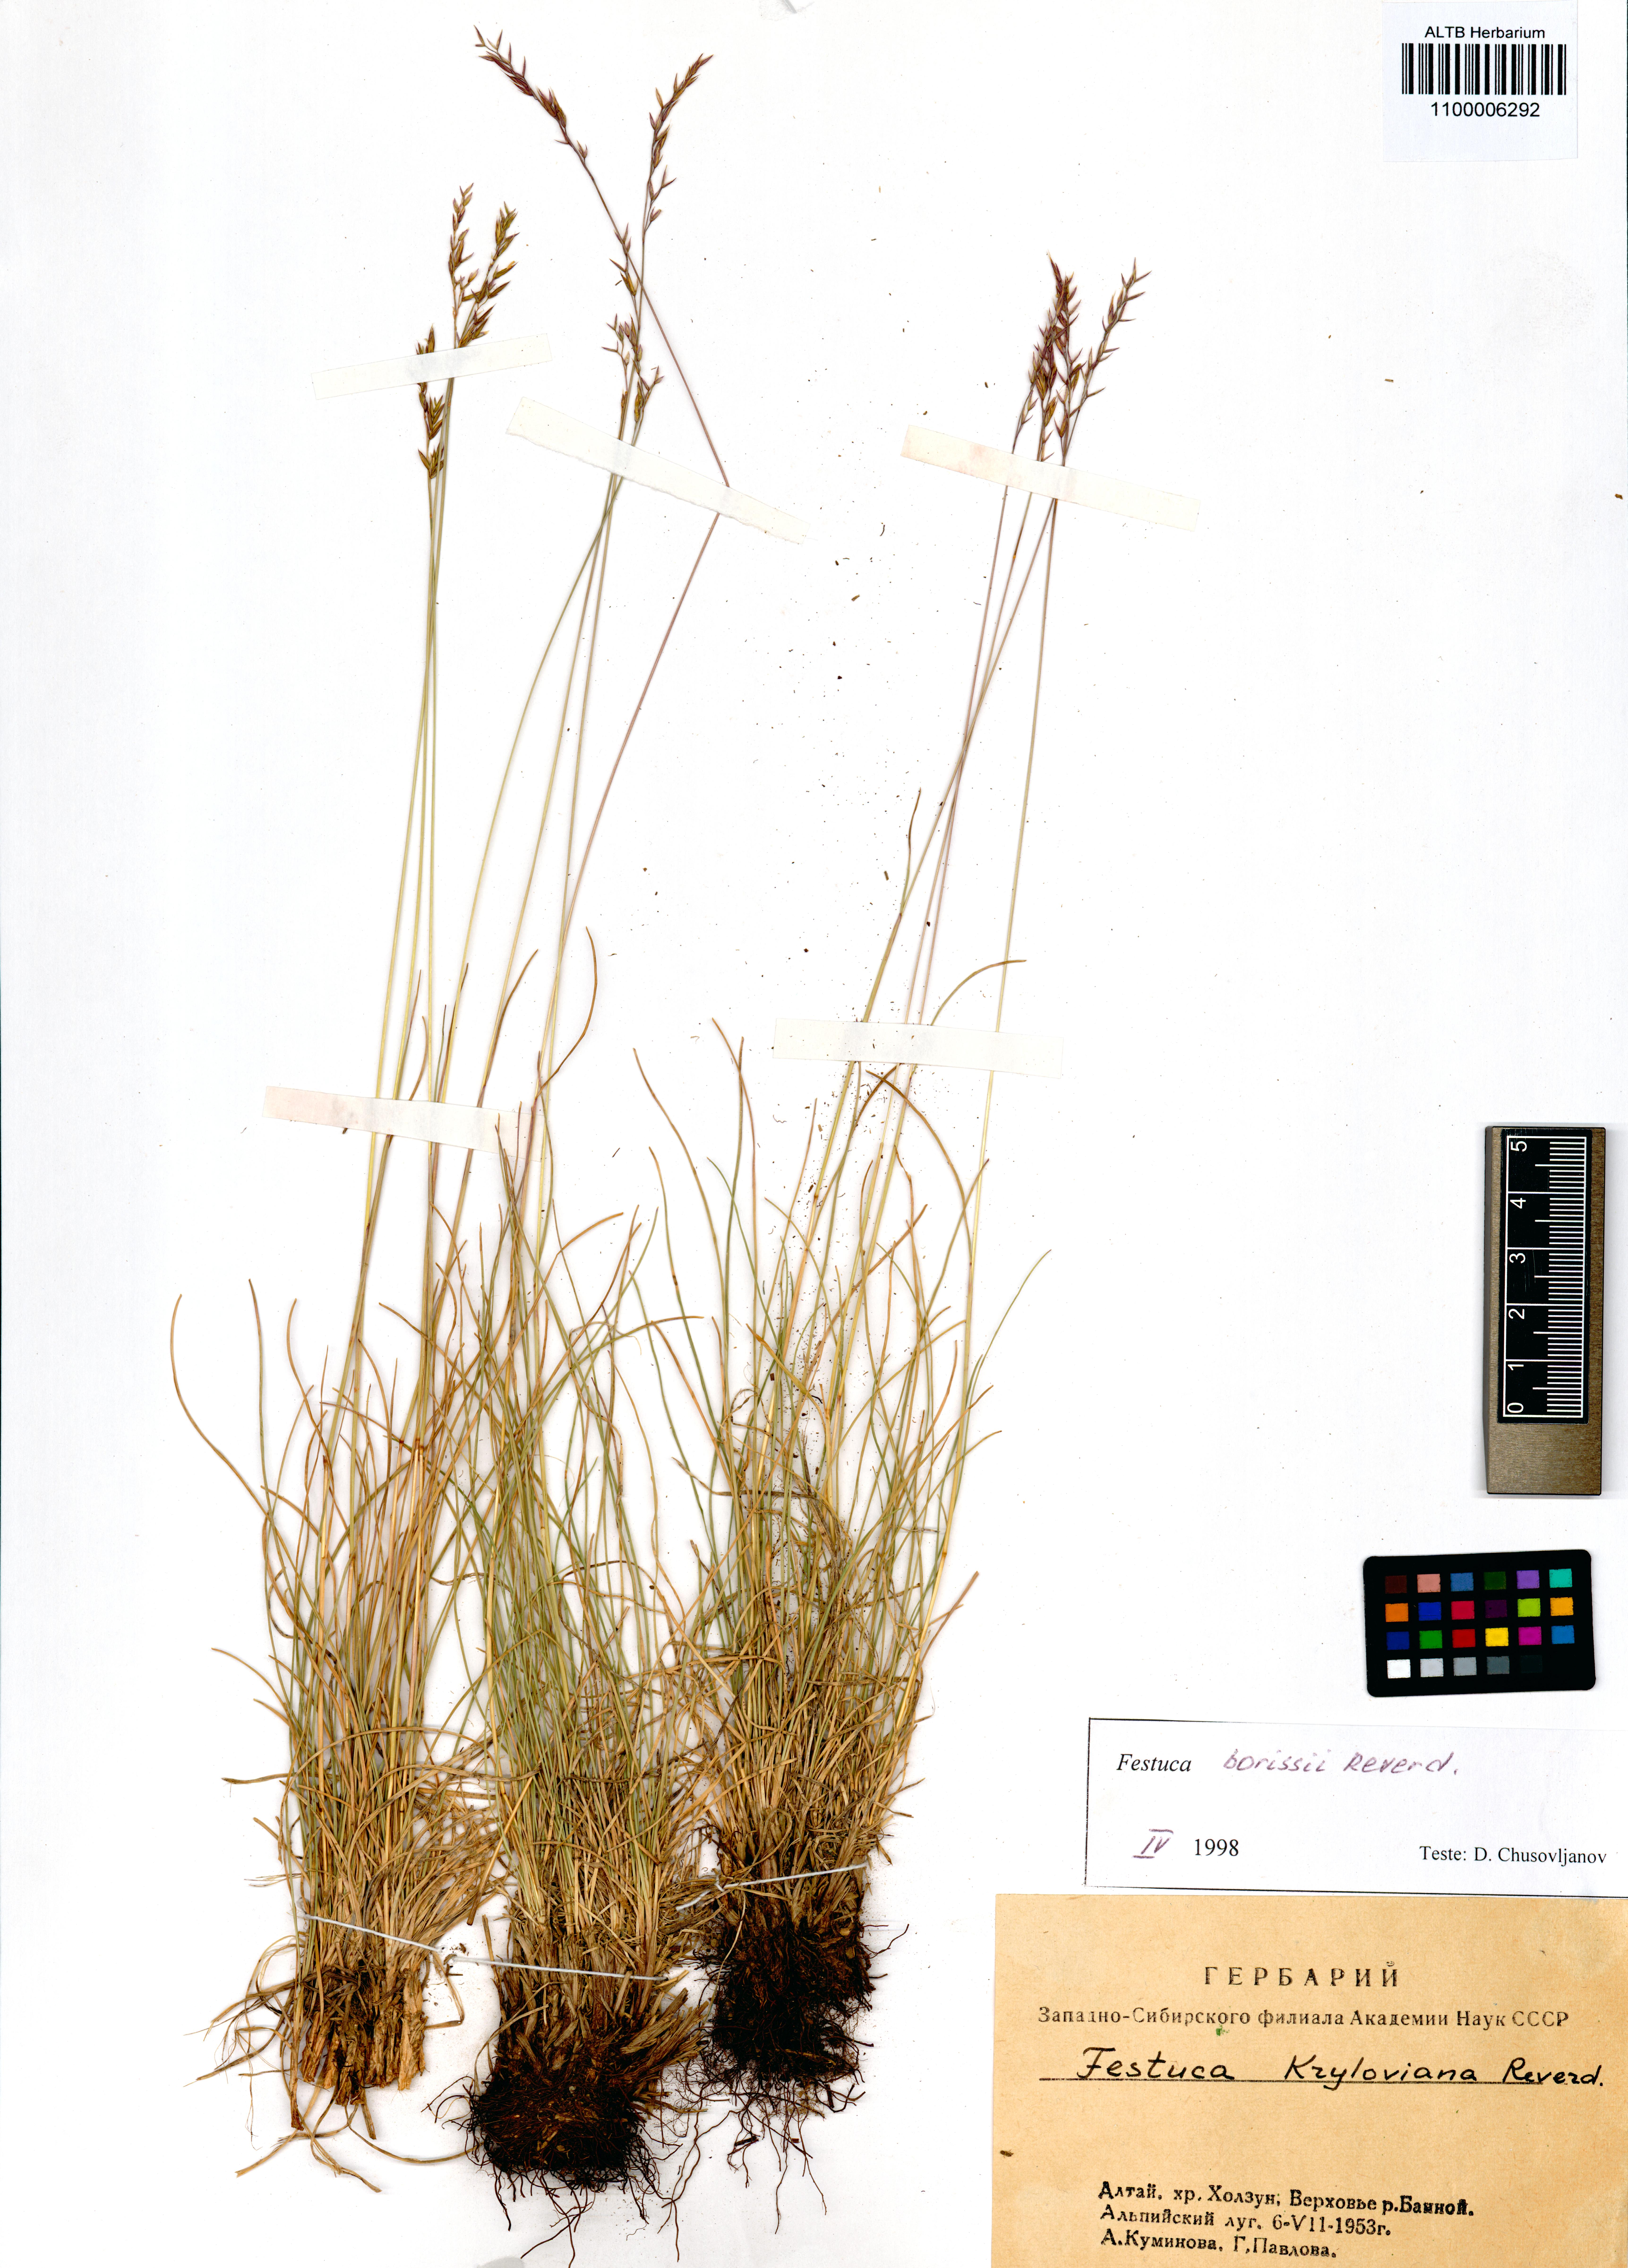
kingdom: Plantae
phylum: Tracheophyta
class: Liliopsida
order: Poales
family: Poaceae
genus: Festuca
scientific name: Festuca borissii
